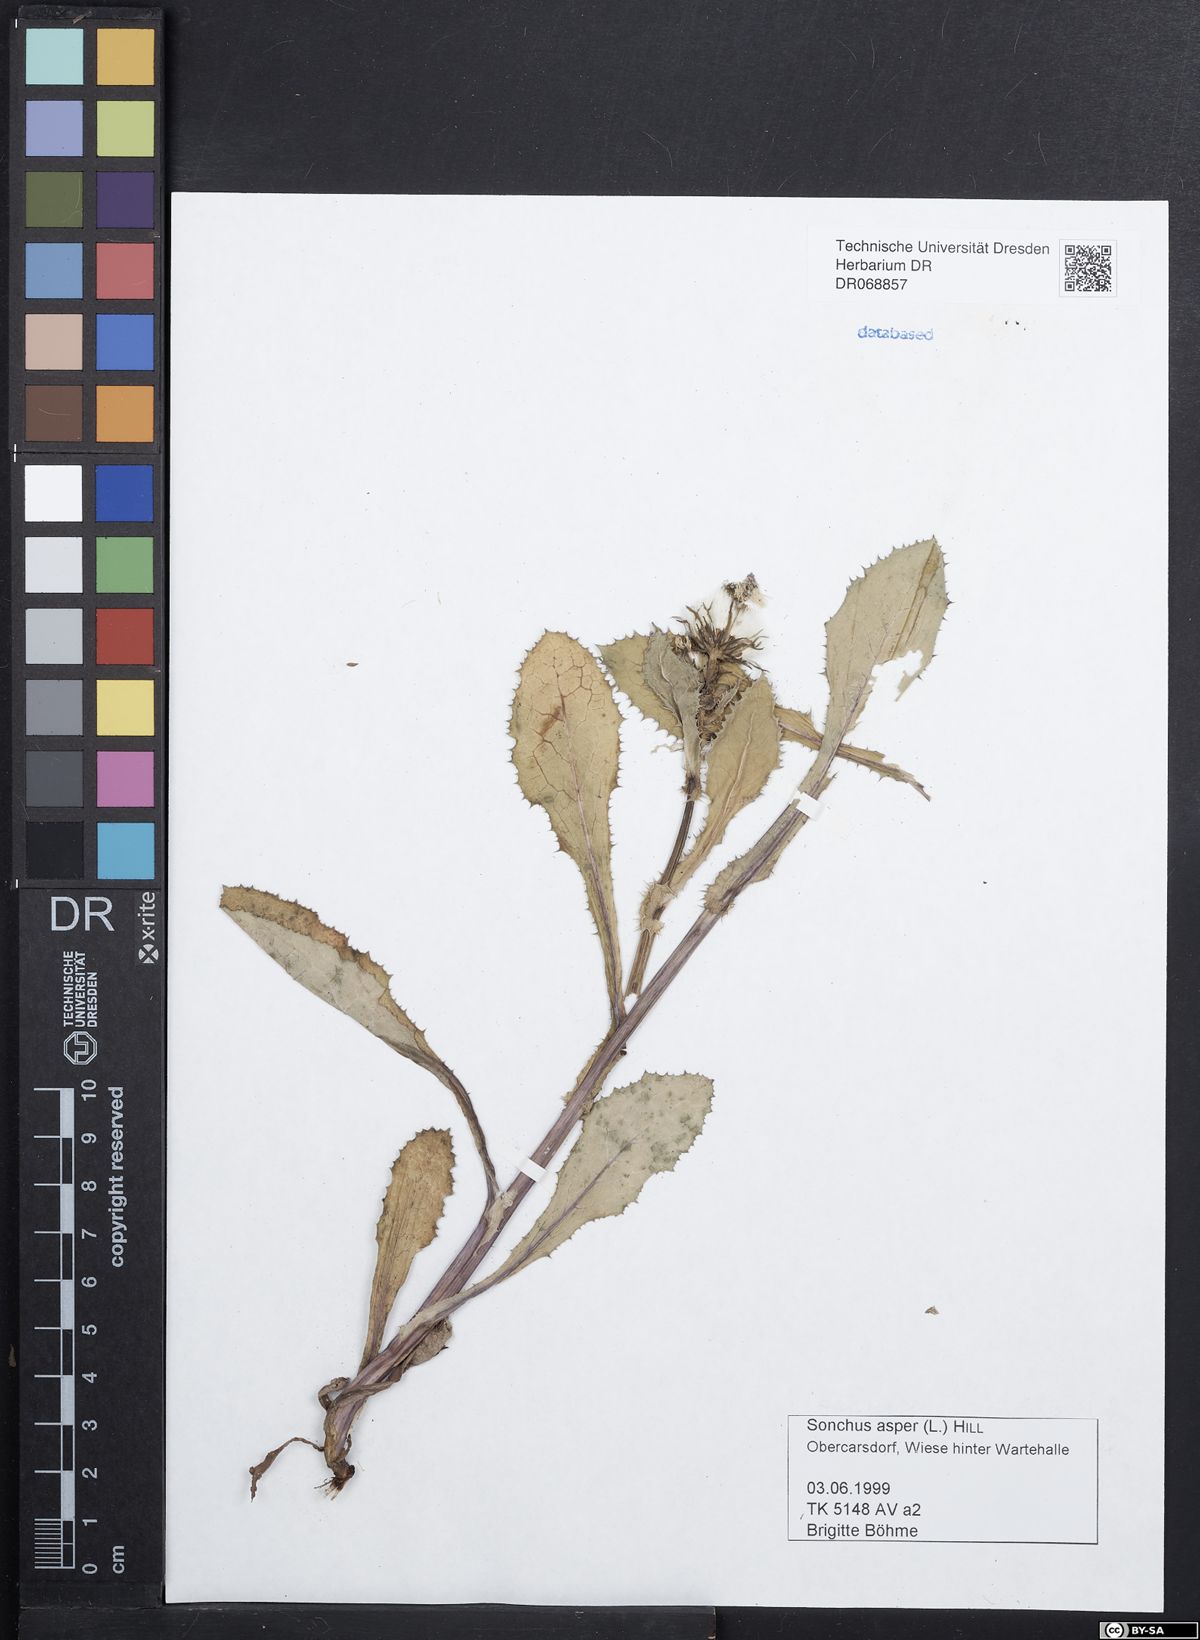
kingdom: Plantae
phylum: Tracheophyta
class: Magnoliopsida
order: Asterales
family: Asteraceae
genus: Sonchus
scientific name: Sonchus asper
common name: Prickly sow-thistle
